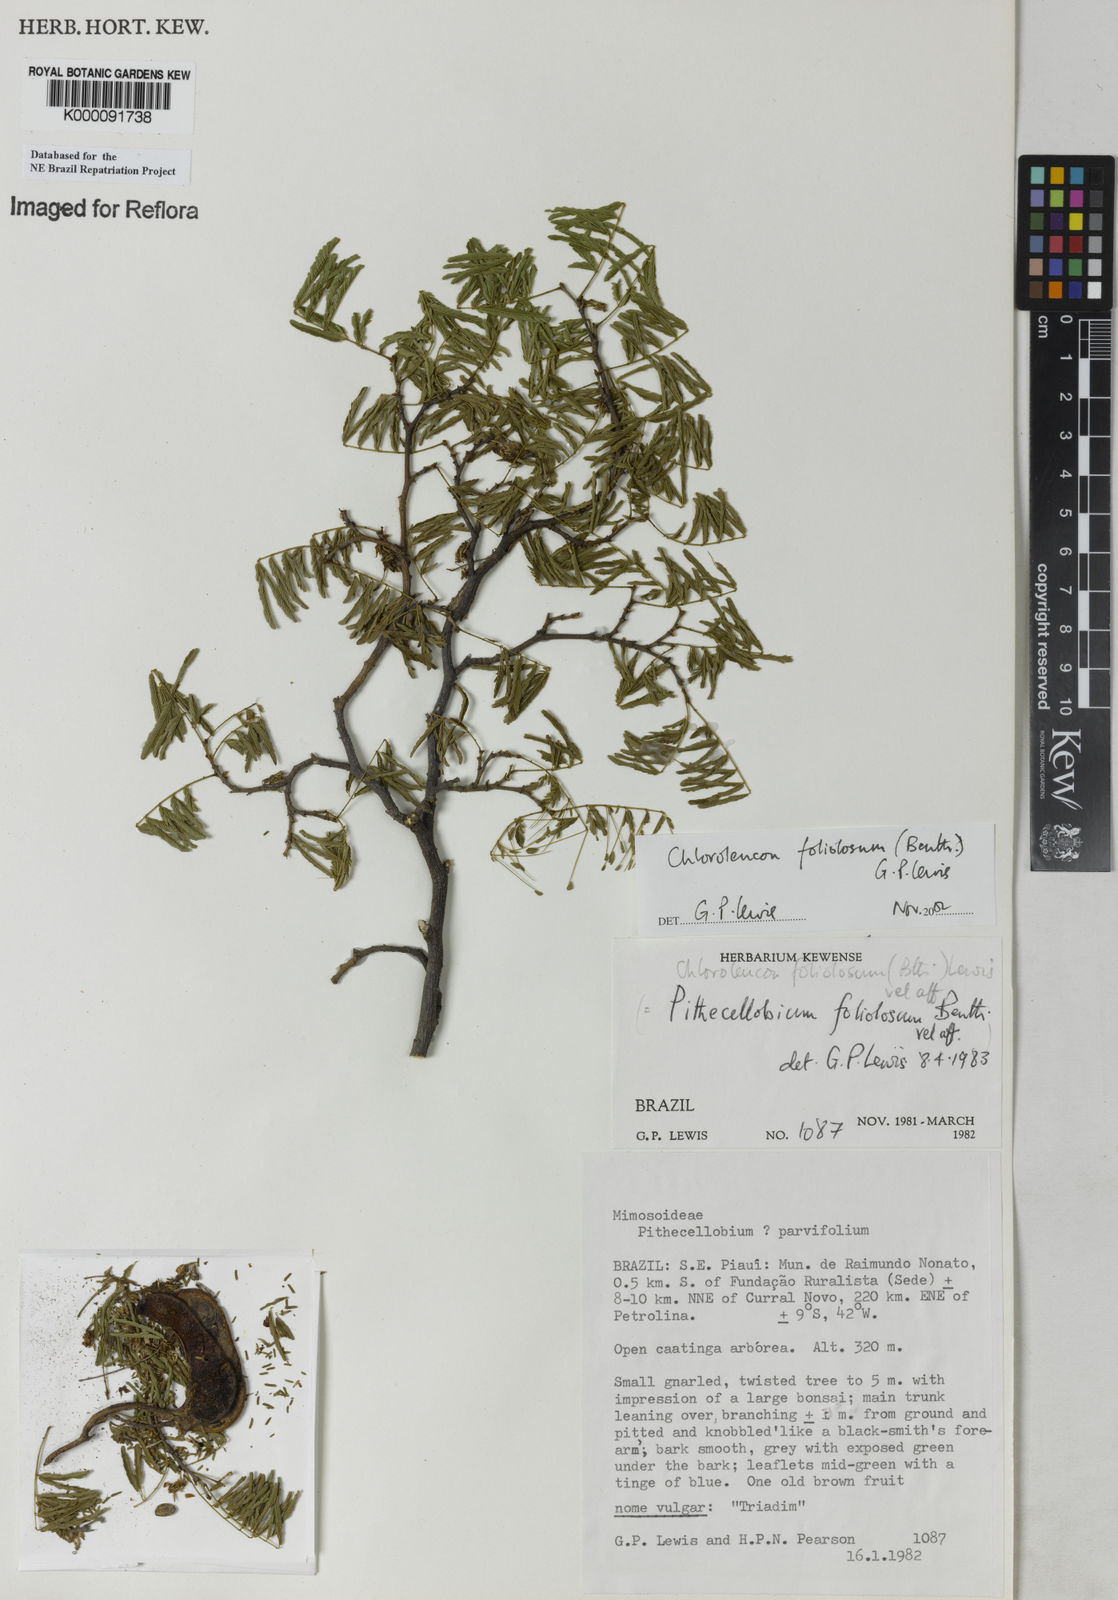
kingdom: Plantae
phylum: Tracheophyta
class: Magnoliopsida
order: Fabales
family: Fabaceae
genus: Chloroleucon
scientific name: Chloroleucon foliolosum
